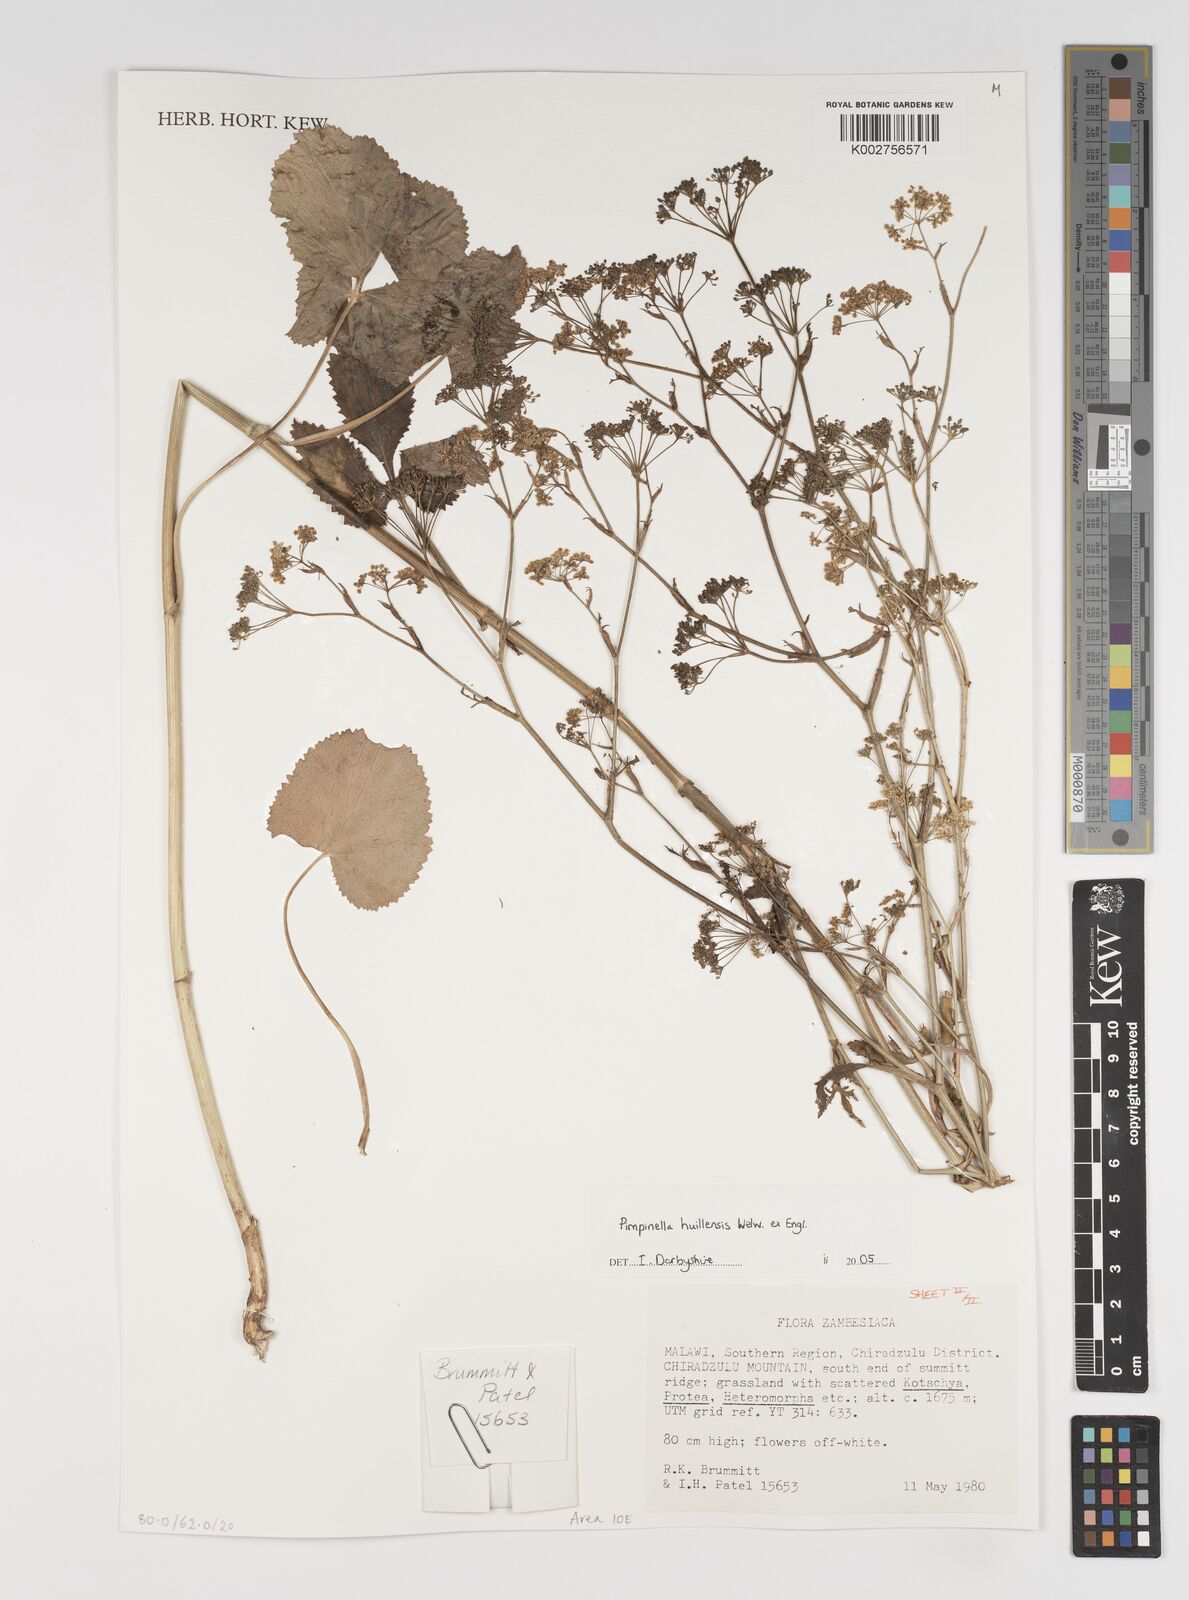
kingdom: Plantae
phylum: Tracheophyta
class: Magnoliopsida
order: Apiales
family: Apiaceae
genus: Pimpinella
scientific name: Pimpinella huillensis
